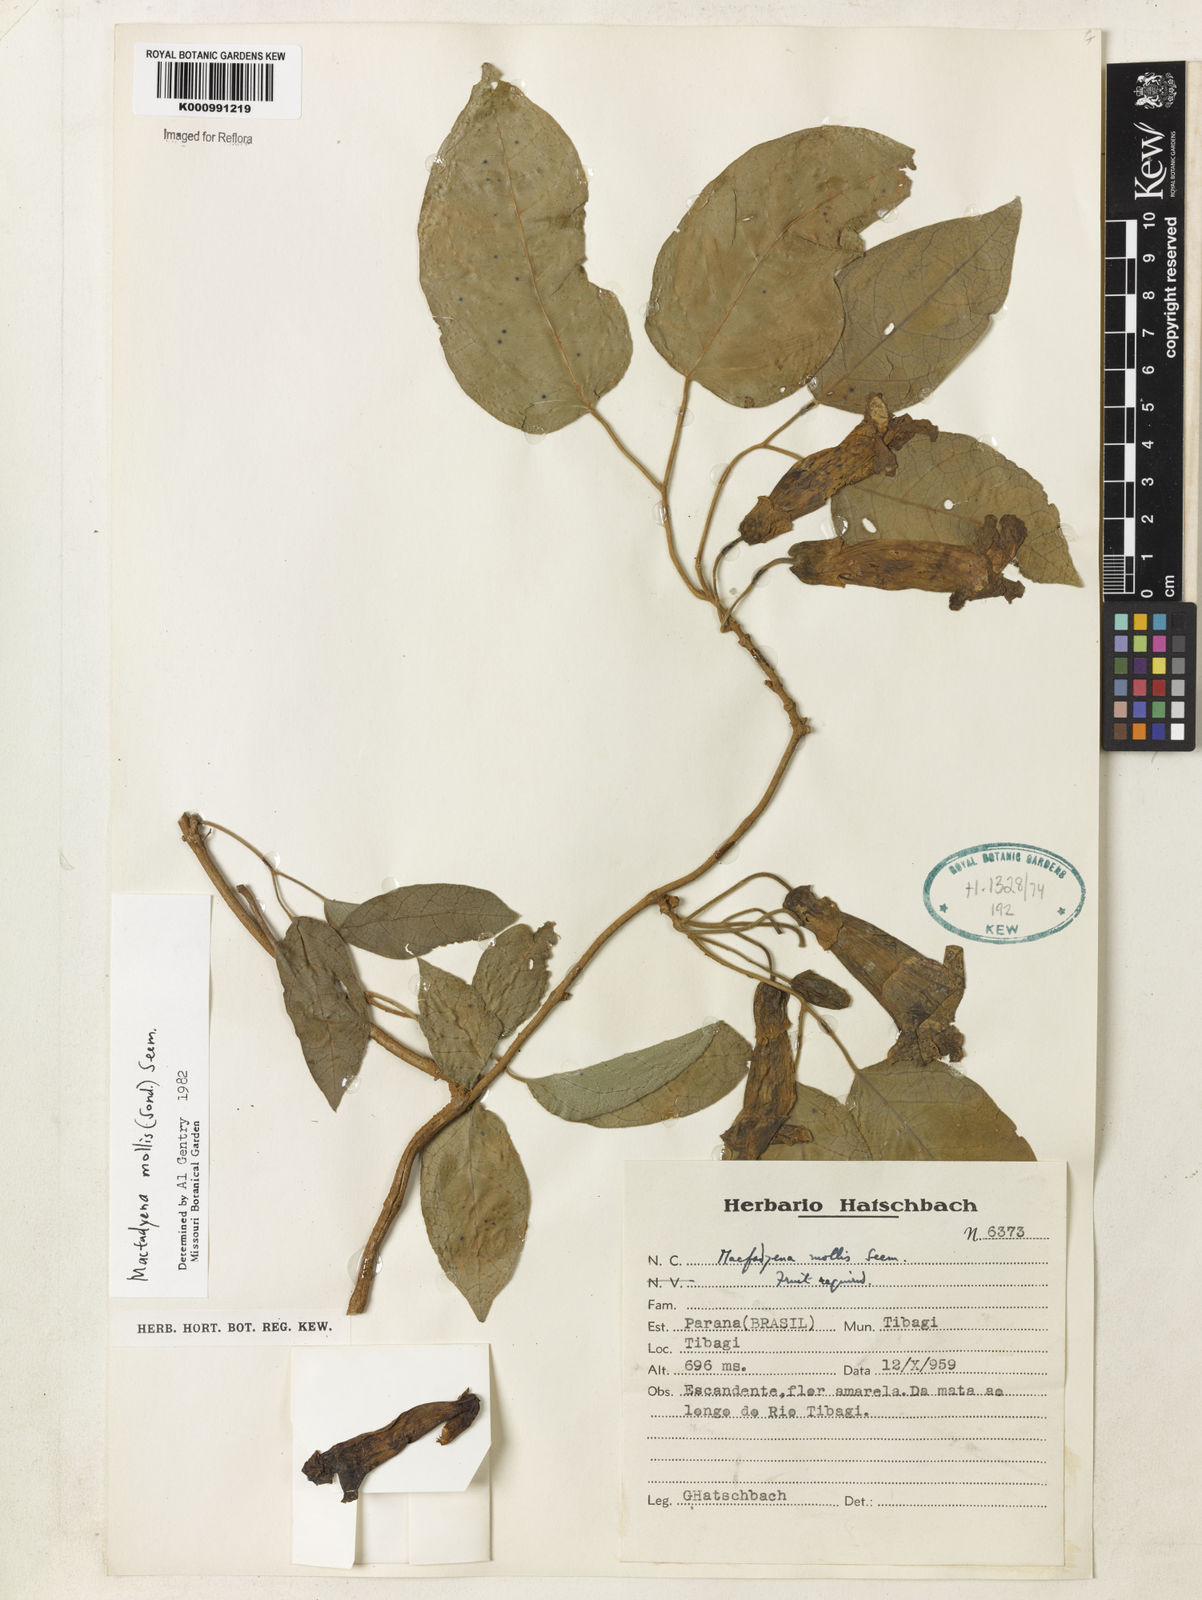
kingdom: Plantae
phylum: Tracheophyta
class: Magnoliopsida
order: Lamiales
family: Bignoniaceae
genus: Dolichandra
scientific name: Dolichandra hispida
